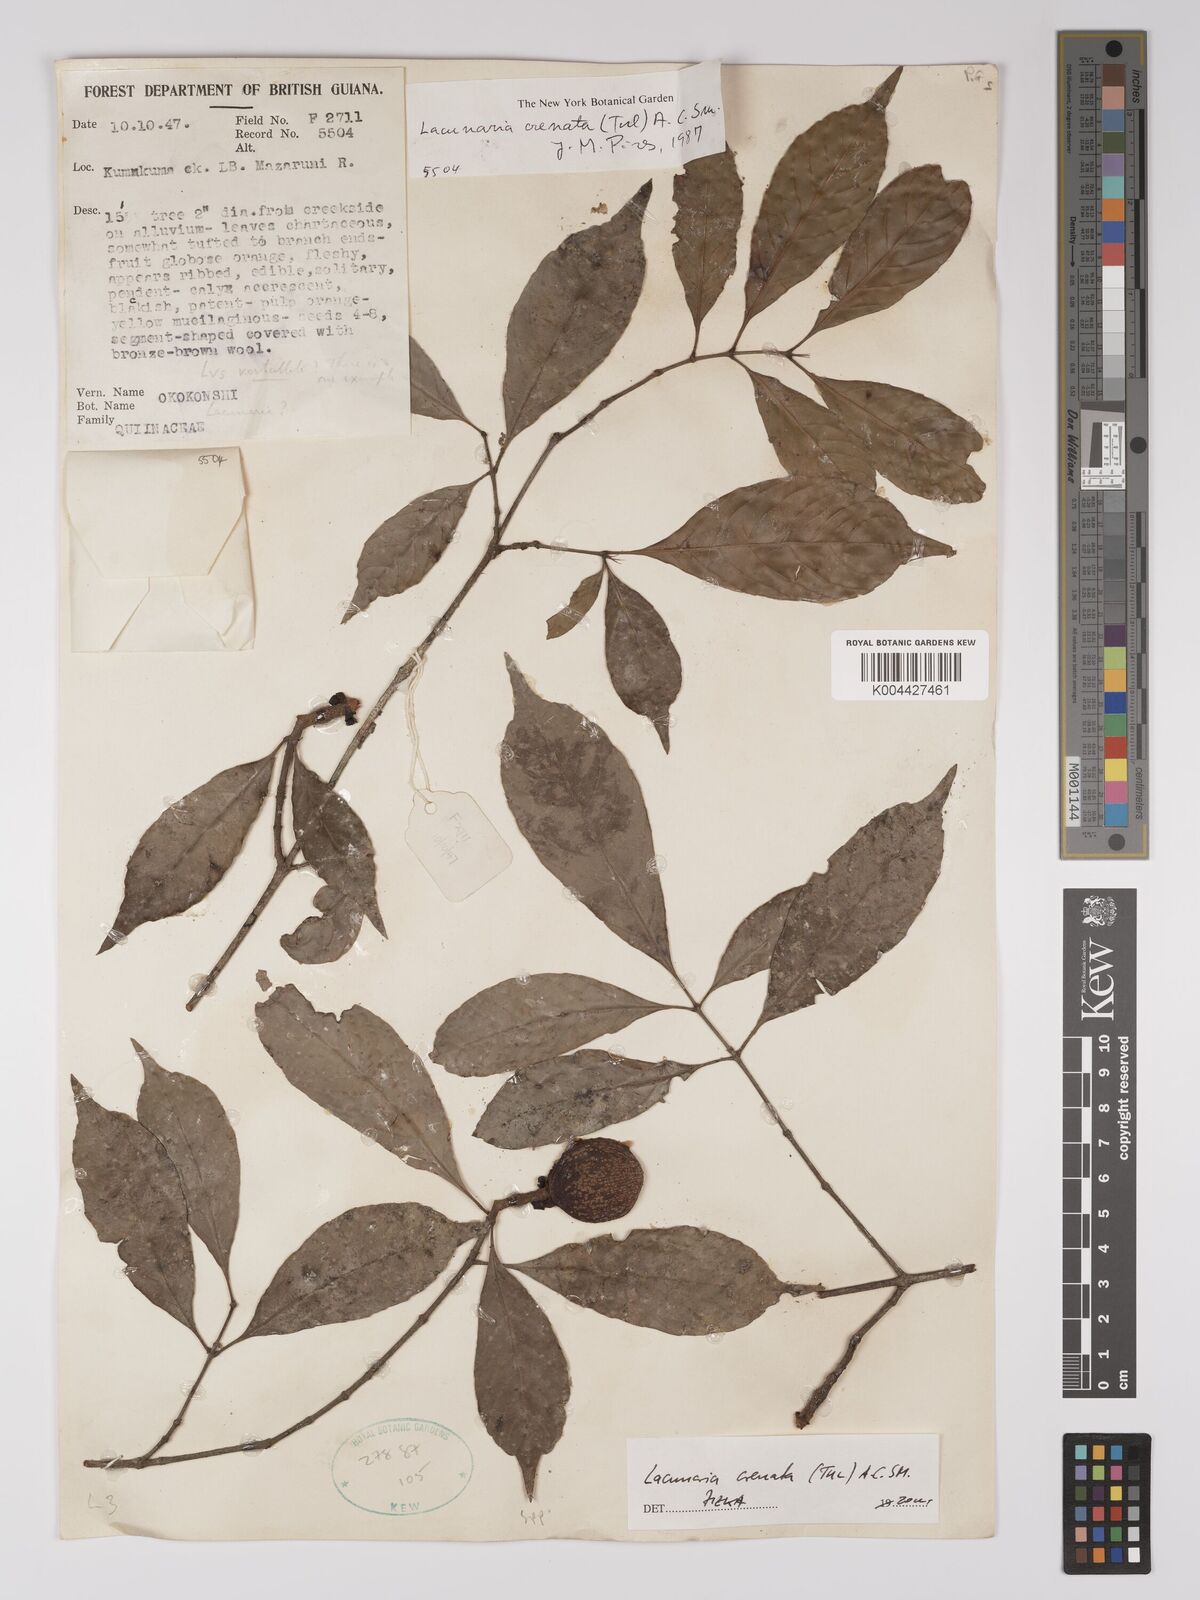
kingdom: Plantae
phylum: Tracheophyta
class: Magnoliopsida
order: Malpighiales
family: Quiinaceae
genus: Lacunaria
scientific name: Lacunaria crenata
